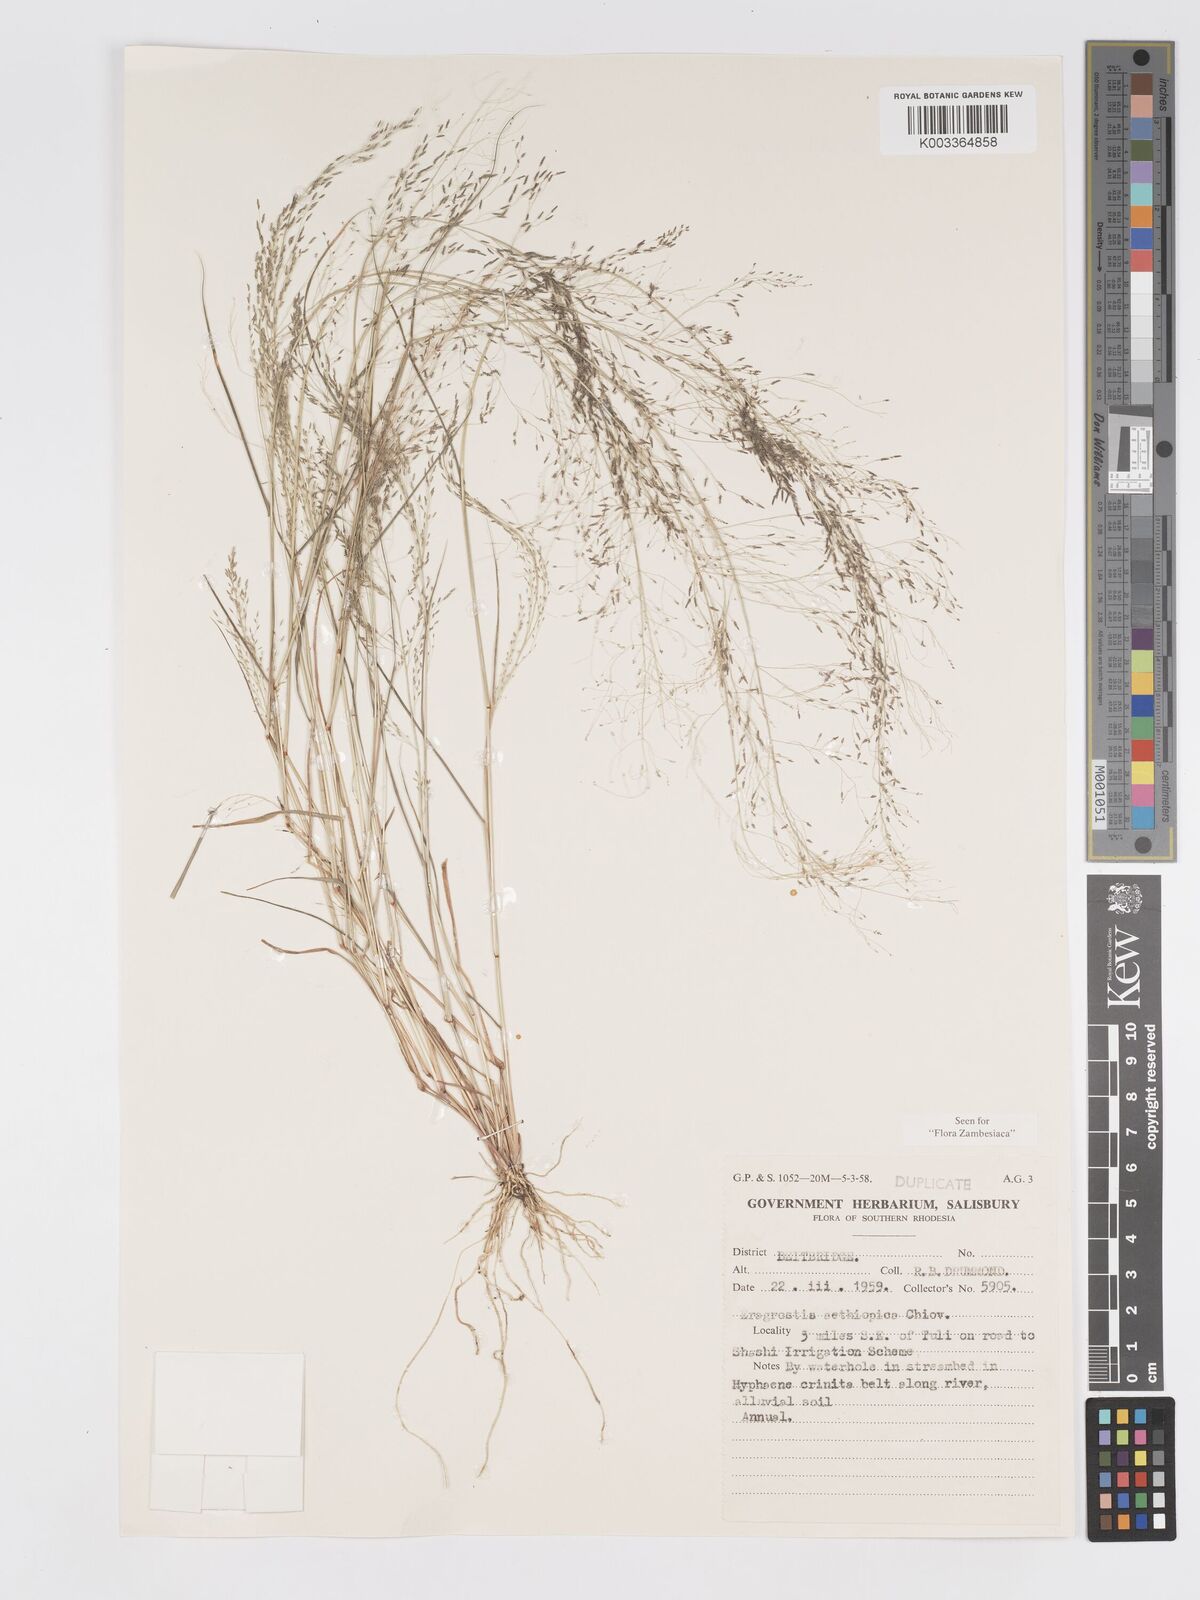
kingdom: Plantae
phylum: Tracheophyta
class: Liliopsida
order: Poales
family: Poaceae
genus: Eragrostis
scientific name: Eragrostis aethiopica
